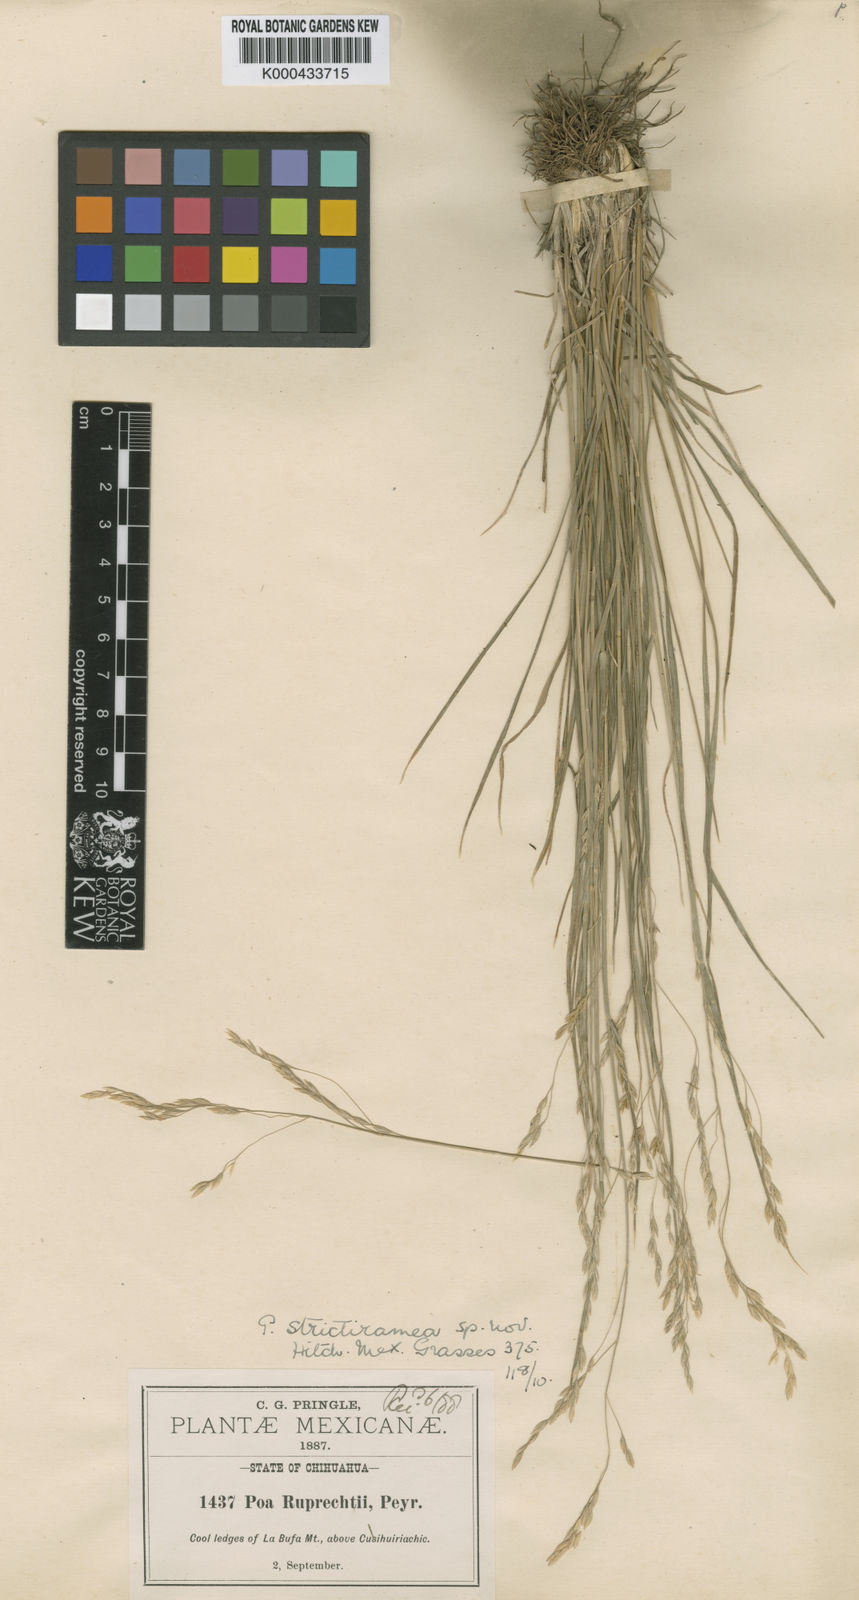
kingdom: Plantae
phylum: Tracheophyta
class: Liliopsida
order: Poales
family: Poaceae
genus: Poa
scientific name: Poa strictiramea
